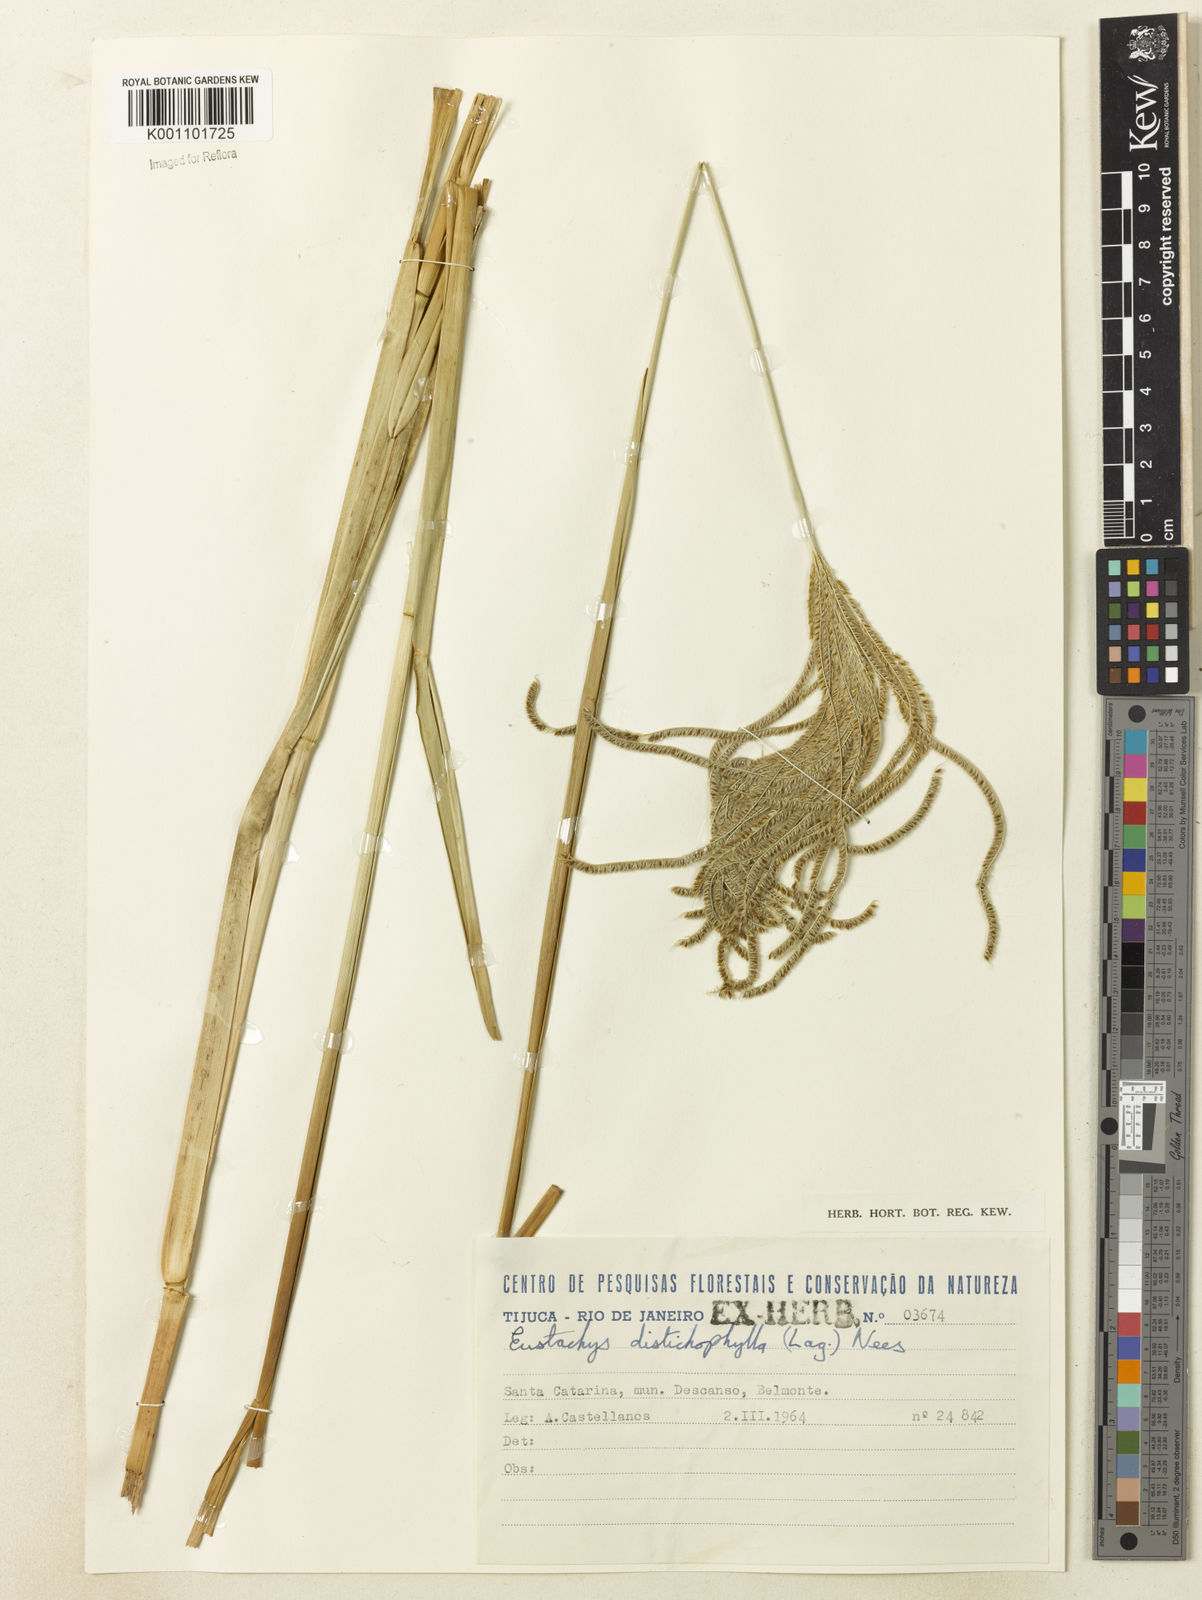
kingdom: Plantae
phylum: Tracheophyta
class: Liliopsida
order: Poales
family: Poaceae
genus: Eustachys
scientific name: Eustachys distichophylla
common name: Weeping fingergrass
